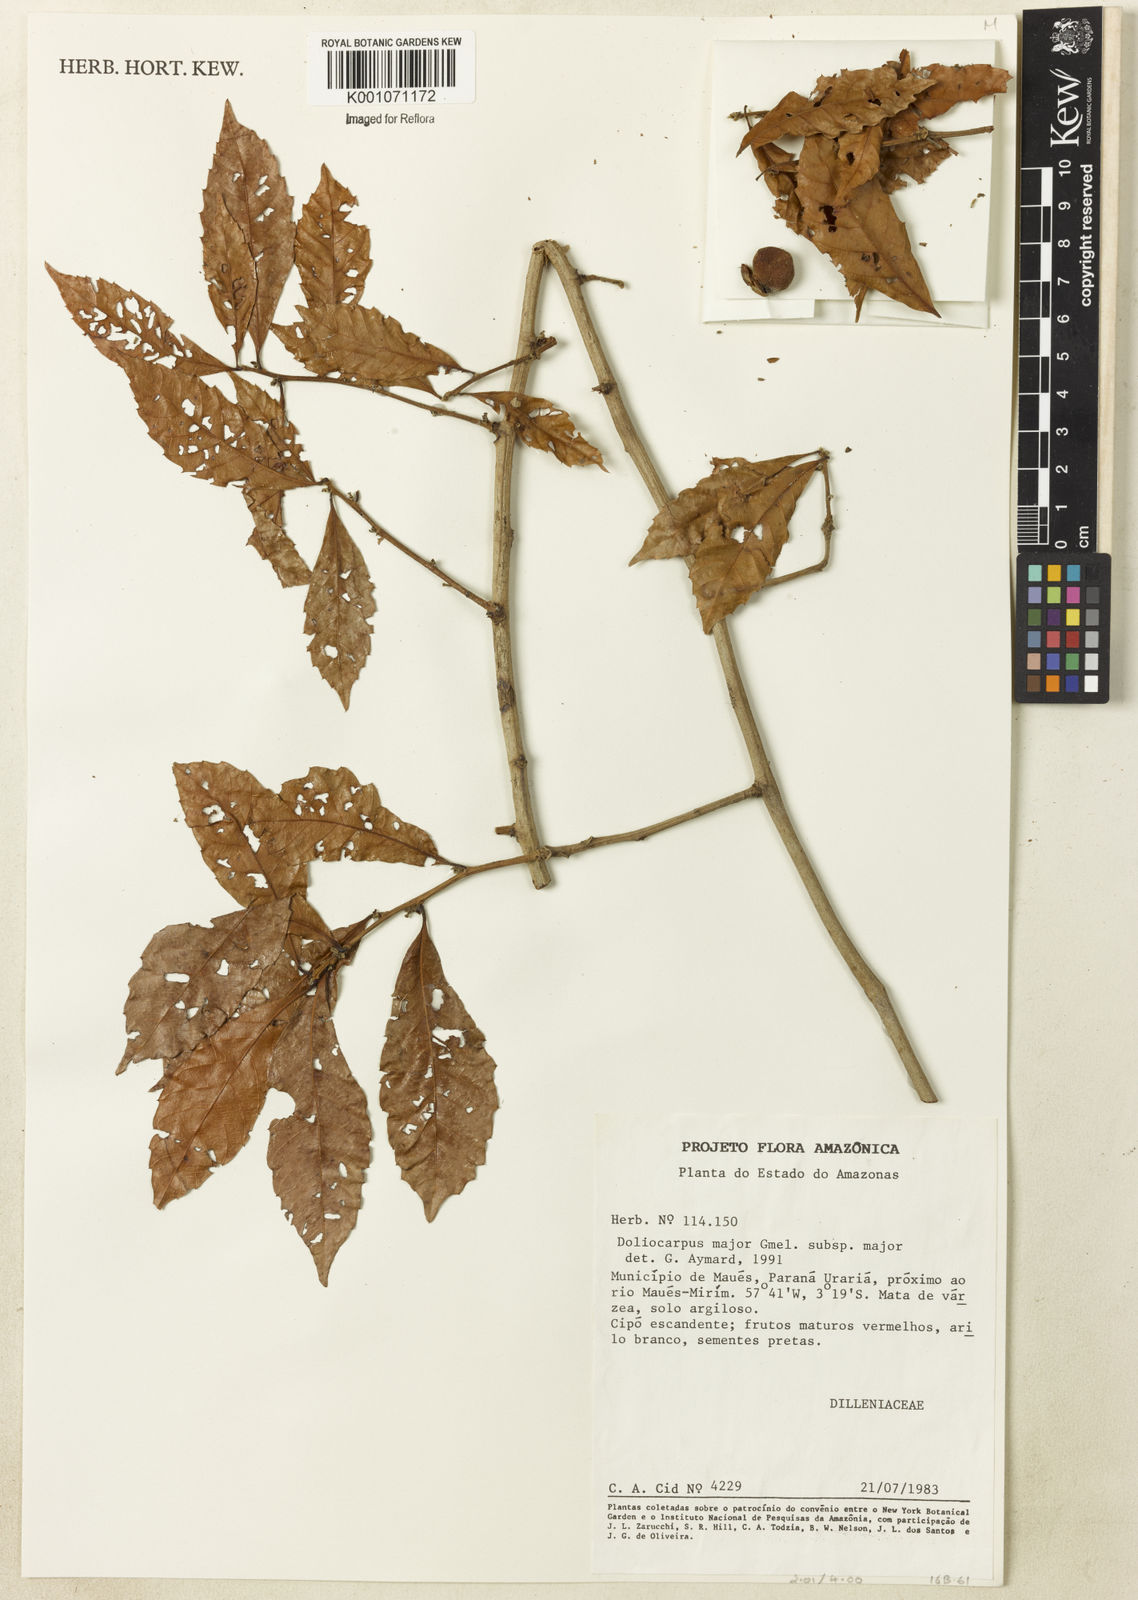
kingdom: Plantae
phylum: Tracheophyta
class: Magnoliopsida
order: Dilleniales
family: Dilleniaceae
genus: Doliocarpus
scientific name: Doliocarpus major
